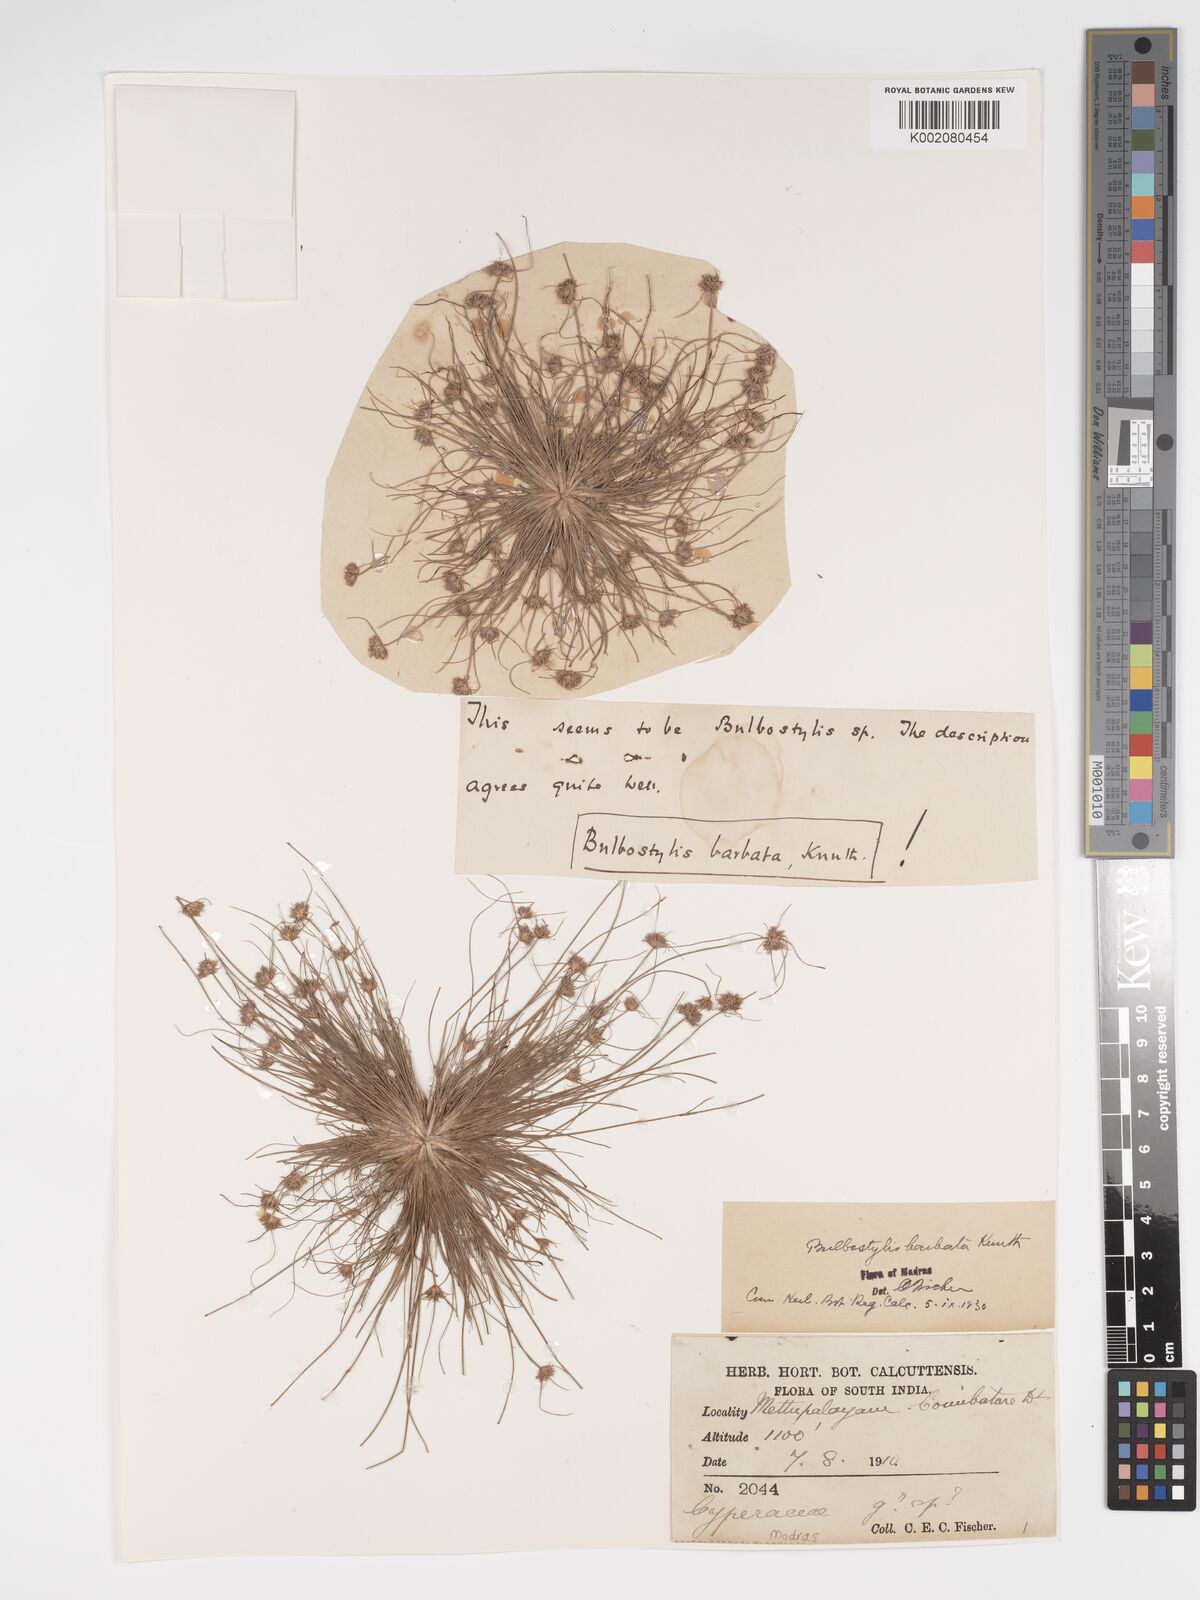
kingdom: Plantae
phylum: Tracheophyta
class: Liliopsida
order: Poales
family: Cyperaceae
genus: Bulbostylis
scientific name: Bulbostylis barbata
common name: Watergrass
